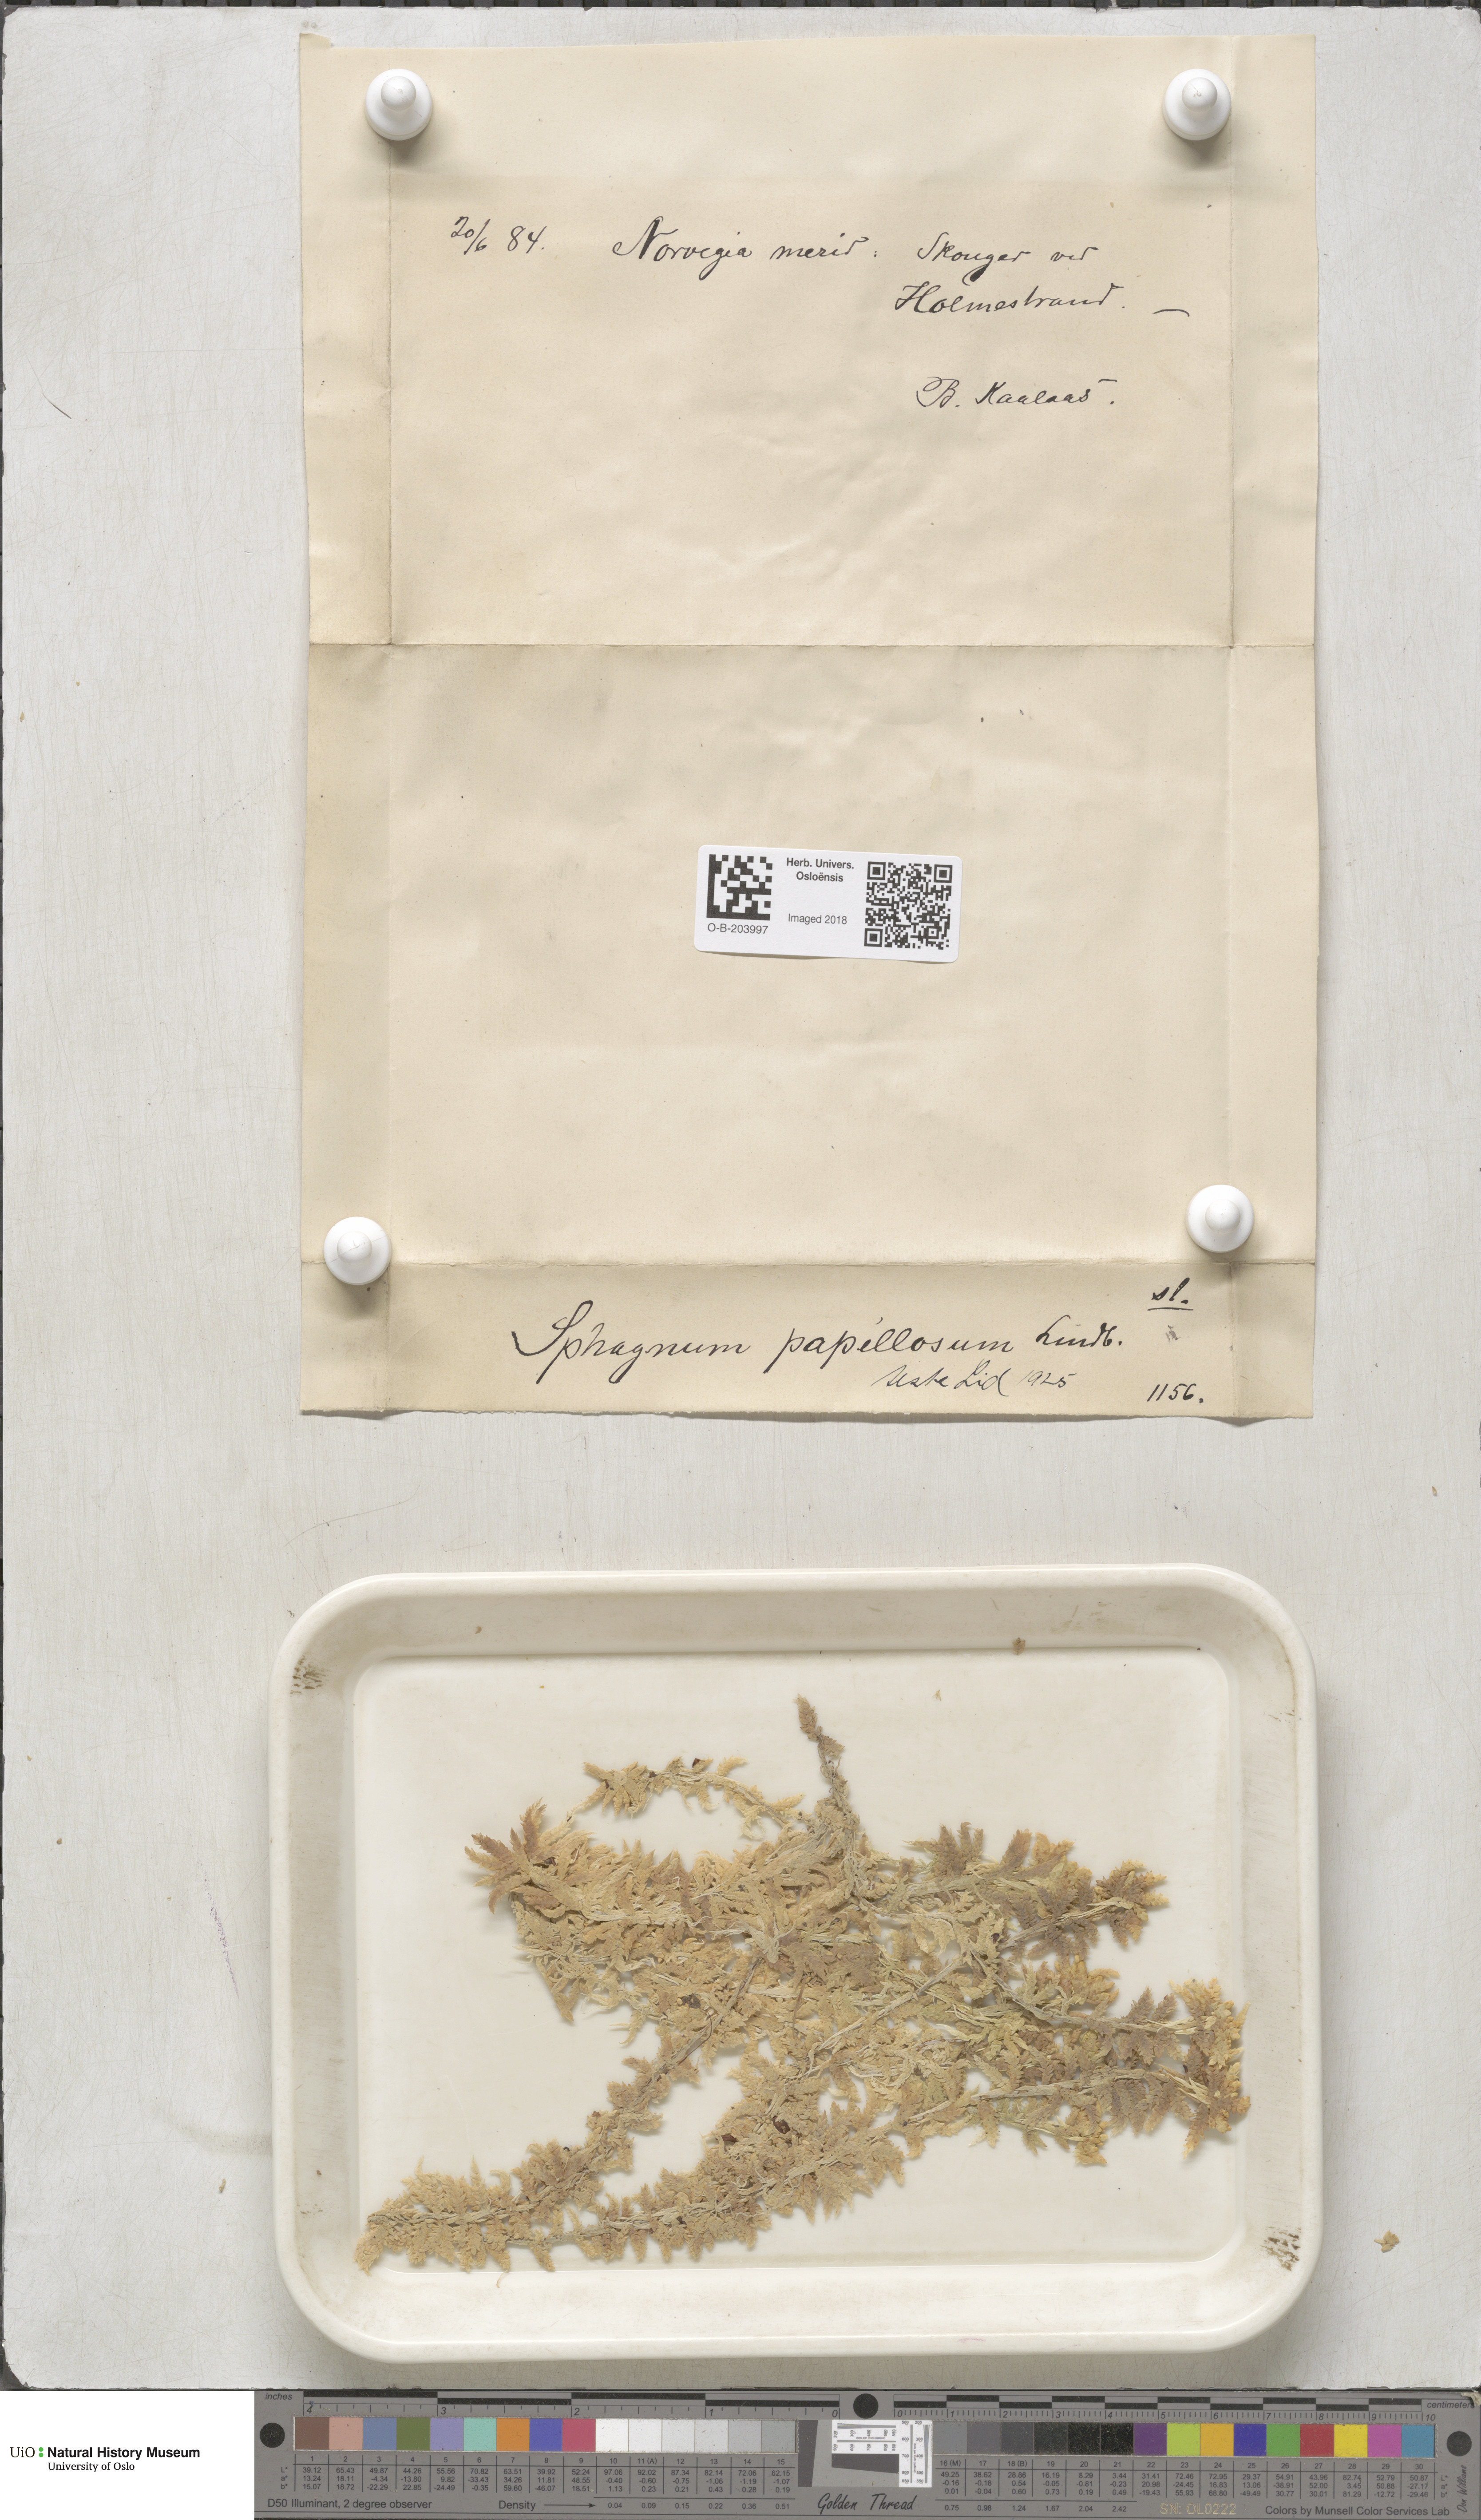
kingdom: Plantae
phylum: Bryophyta
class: Sphagnopsida
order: Sphagnales
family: Sphagnaceae
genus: Sphagnum
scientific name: Sphagnum papillosum
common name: Papillose peat moss
